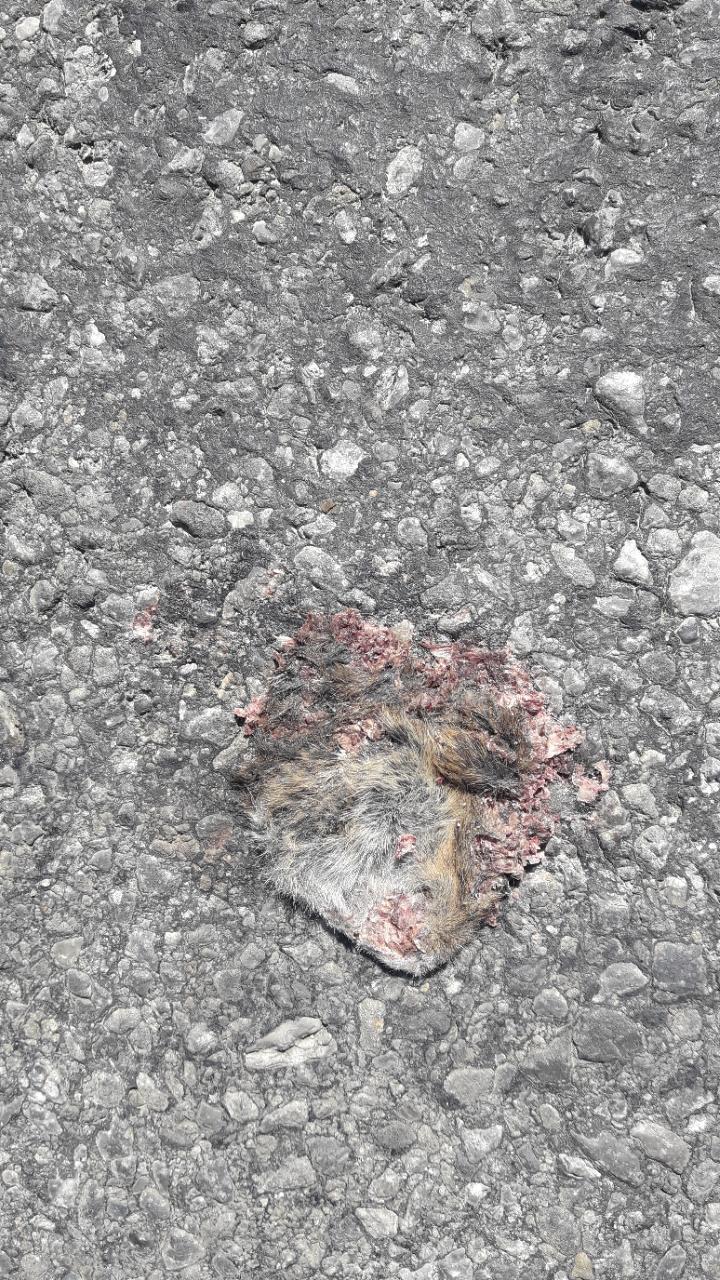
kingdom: Animalia
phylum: Chordata
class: Mammalia
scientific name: Mammalia
